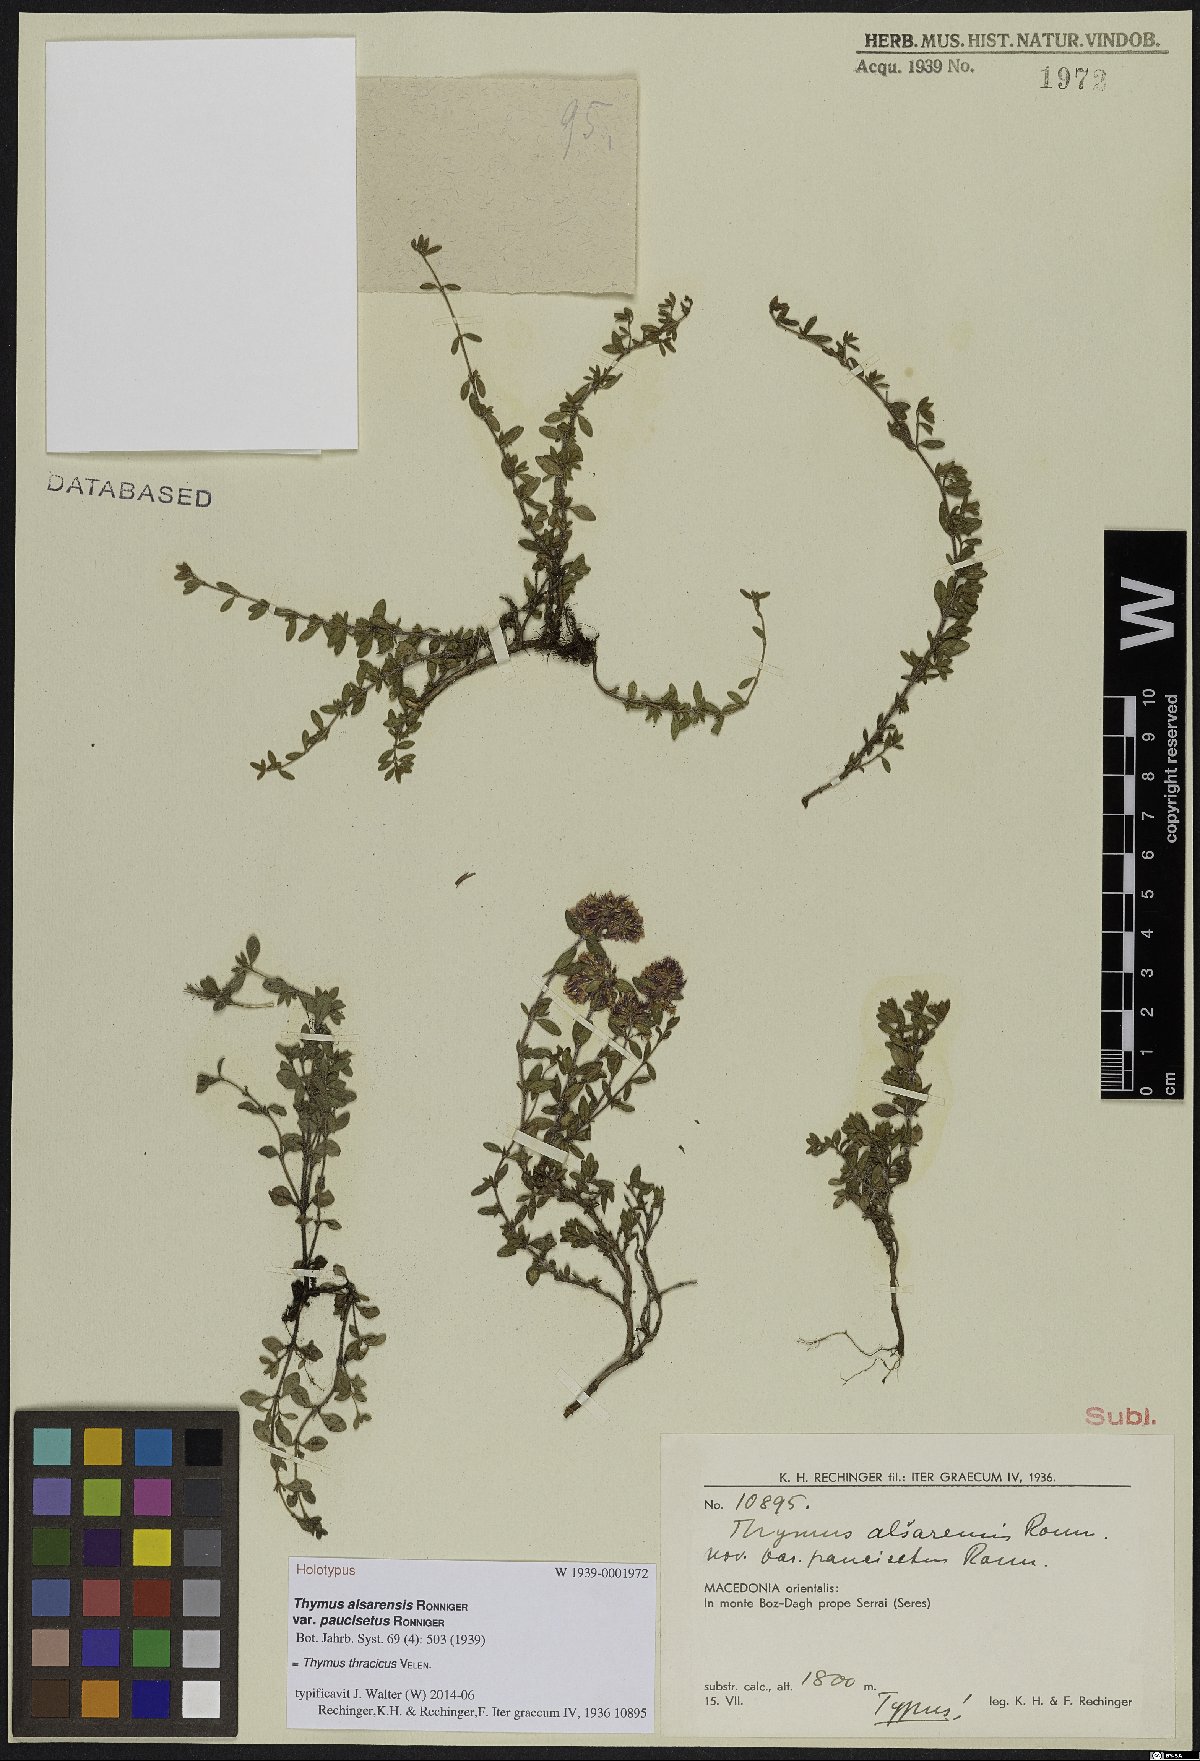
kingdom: Plantae
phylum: Tracheophyta
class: Magnoliopsida
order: Lamiales
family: Lamiaceae
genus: Thymus
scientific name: Thymus thracicus
